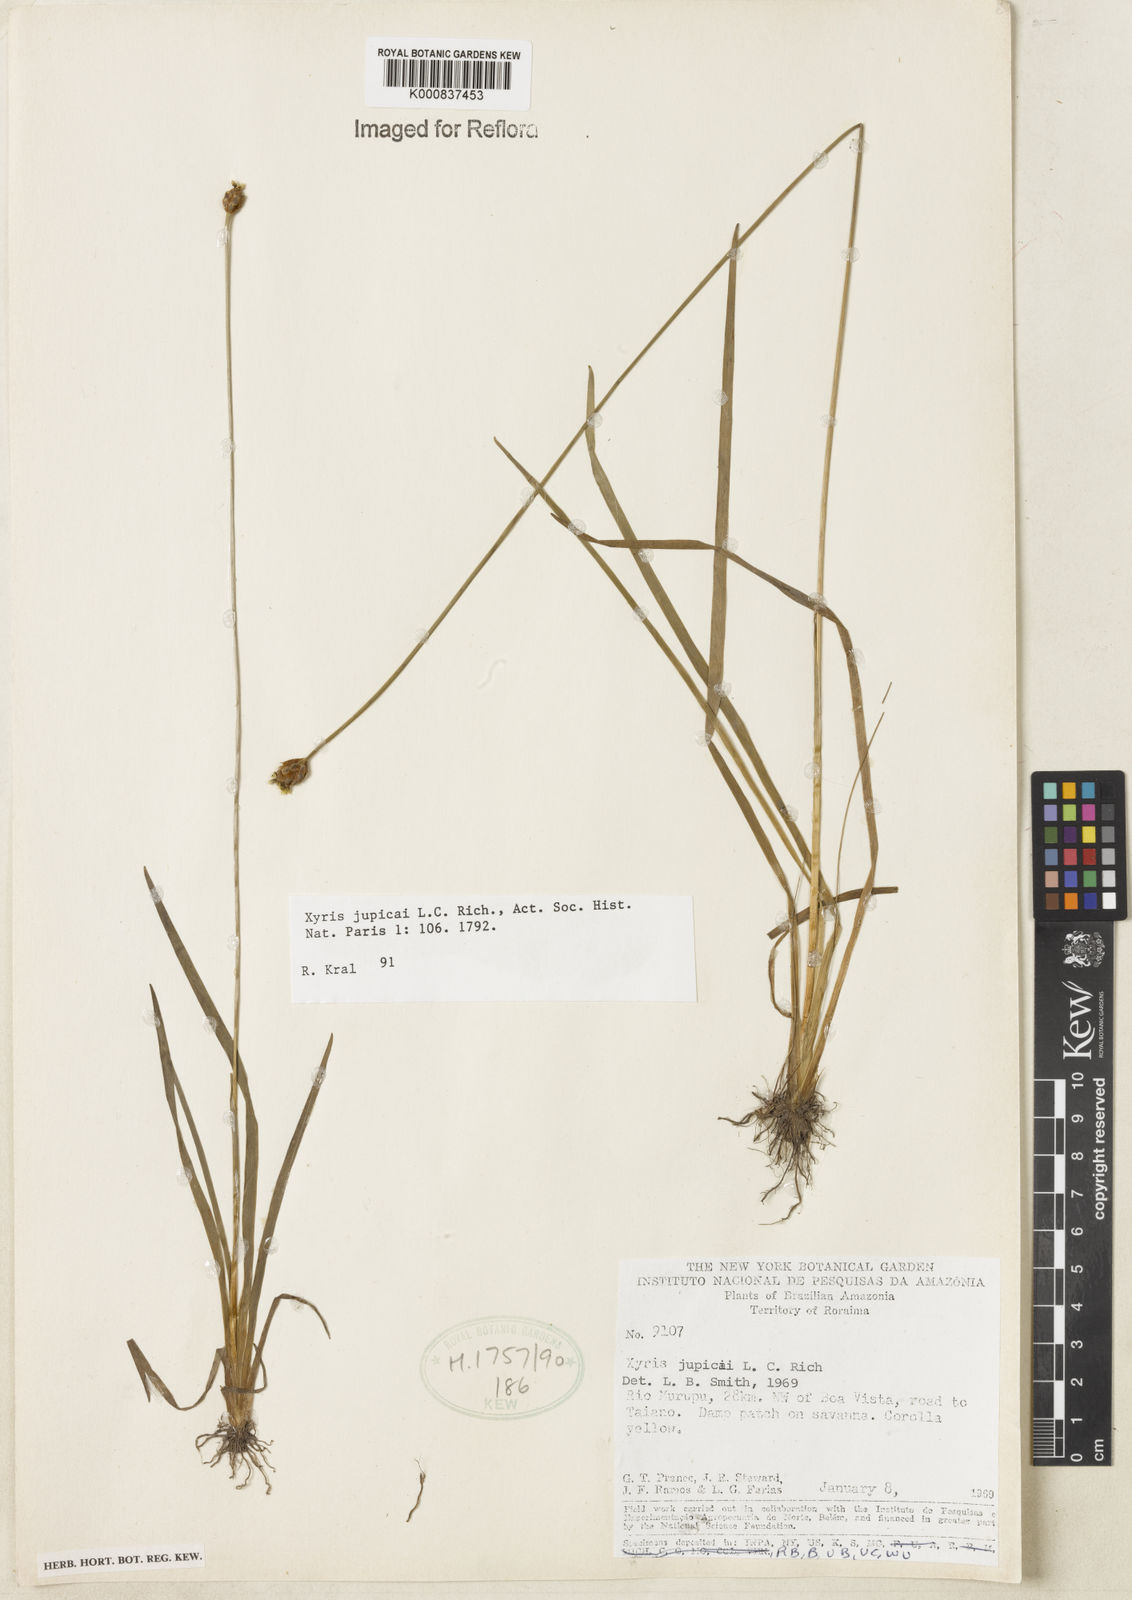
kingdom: Plantae
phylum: Tracheophyta
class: Liliopsida
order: Poales
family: Xyridaceae
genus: Xyris
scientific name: Xyris jupicai
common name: Richard's yelloweyed grass
